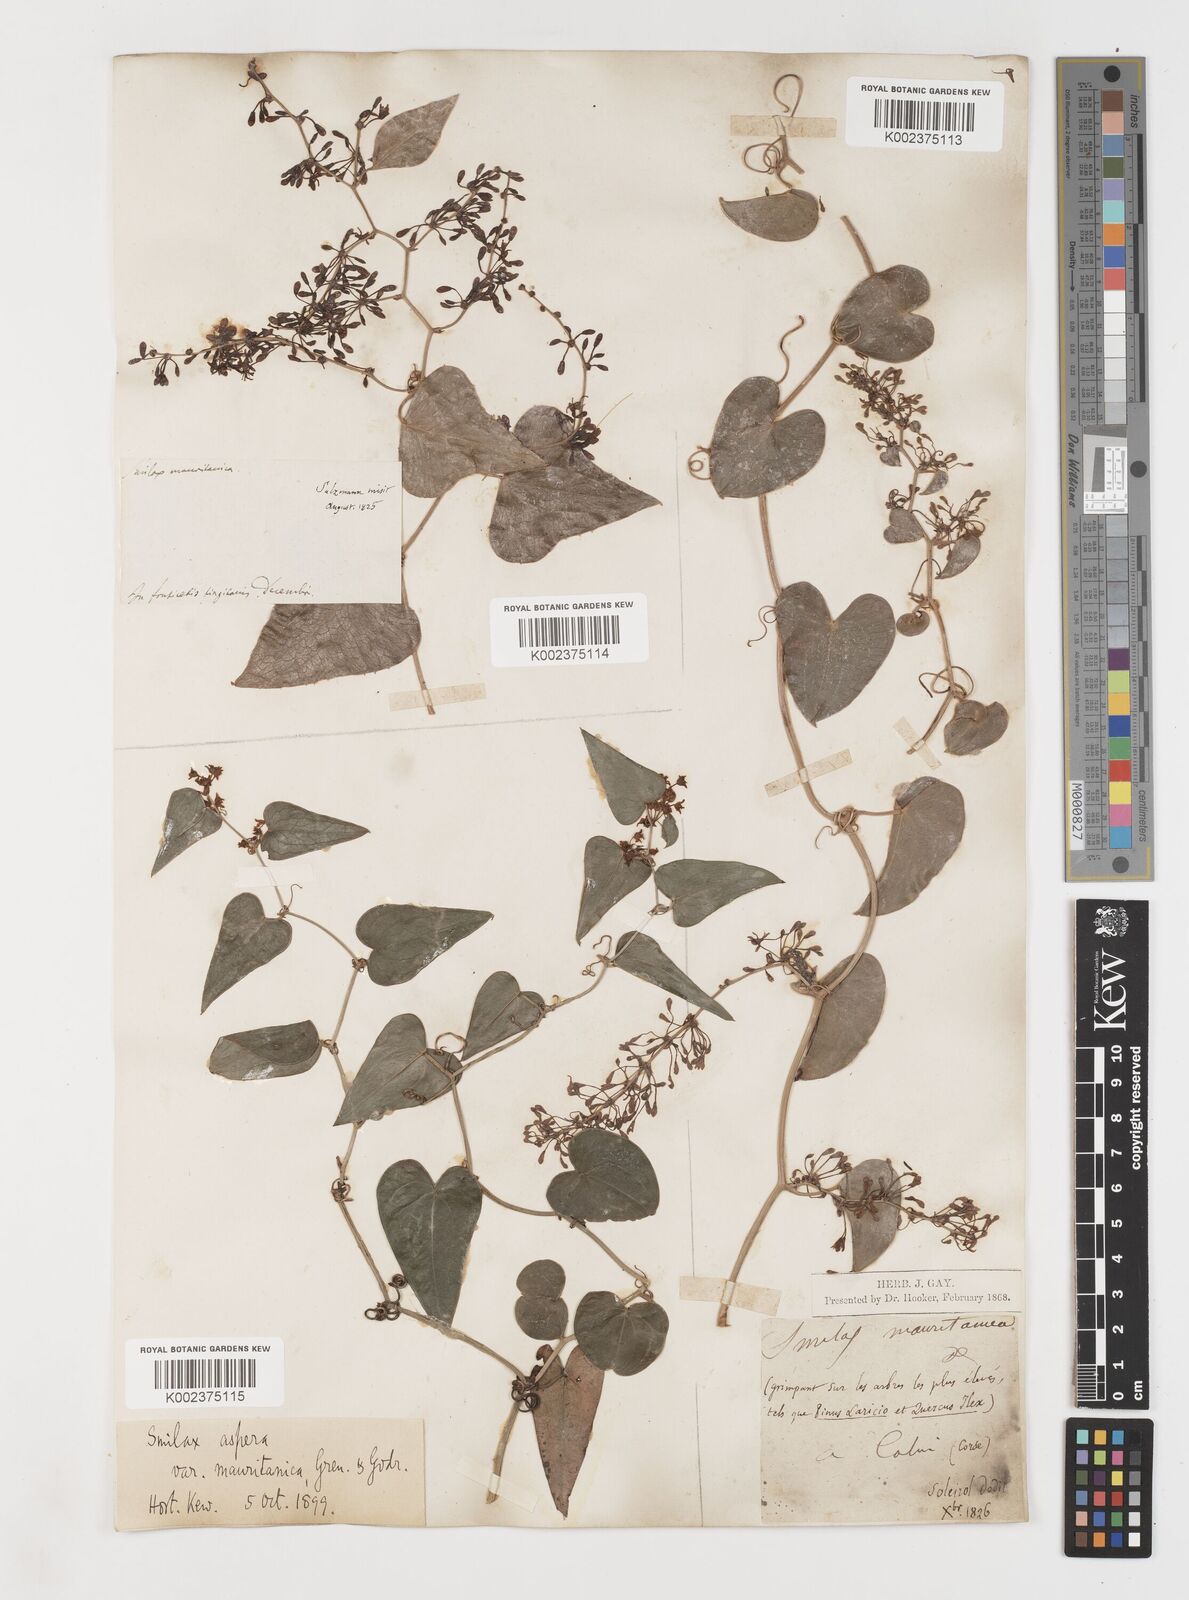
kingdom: Plantae
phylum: Tracheophyta
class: Liliopsida
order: Liliales
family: Smilacaceae
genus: Smilax
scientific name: Smilax aspera
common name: Common smilax
